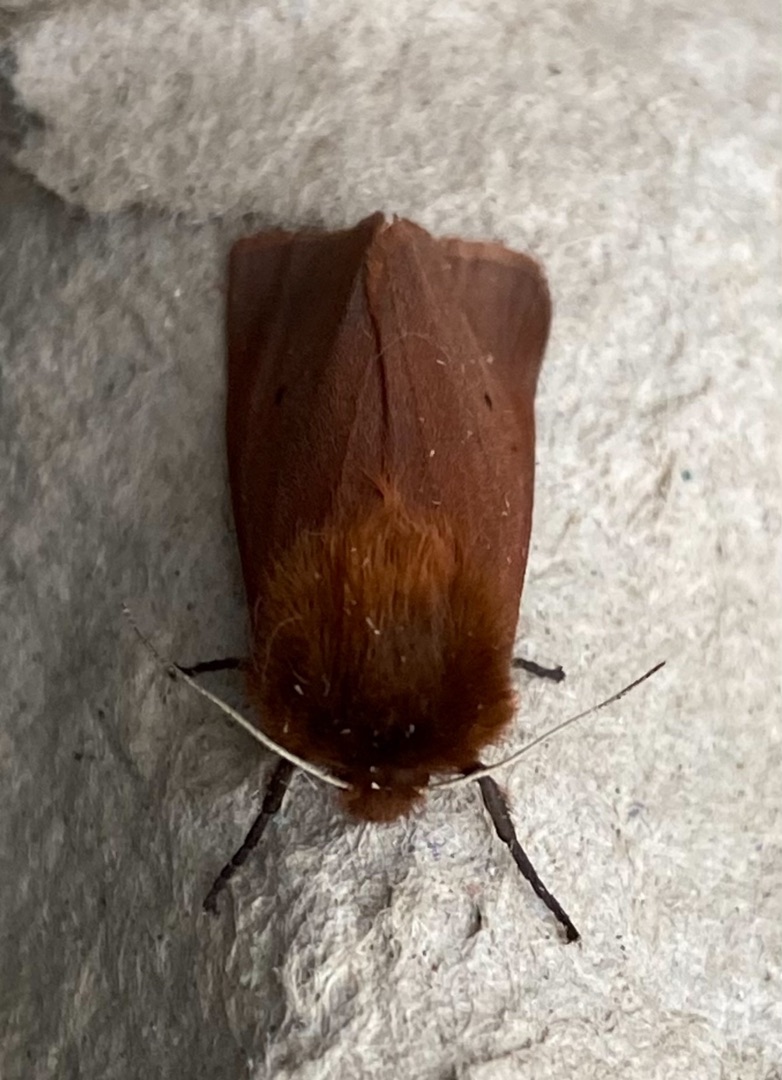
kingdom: Animalia
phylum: Arthropoda
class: Insecta
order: Lepidoptera
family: Erebidae
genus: Phragmatobia
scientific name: Phragmatobia fuliginosa
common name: Kanelbjørn
